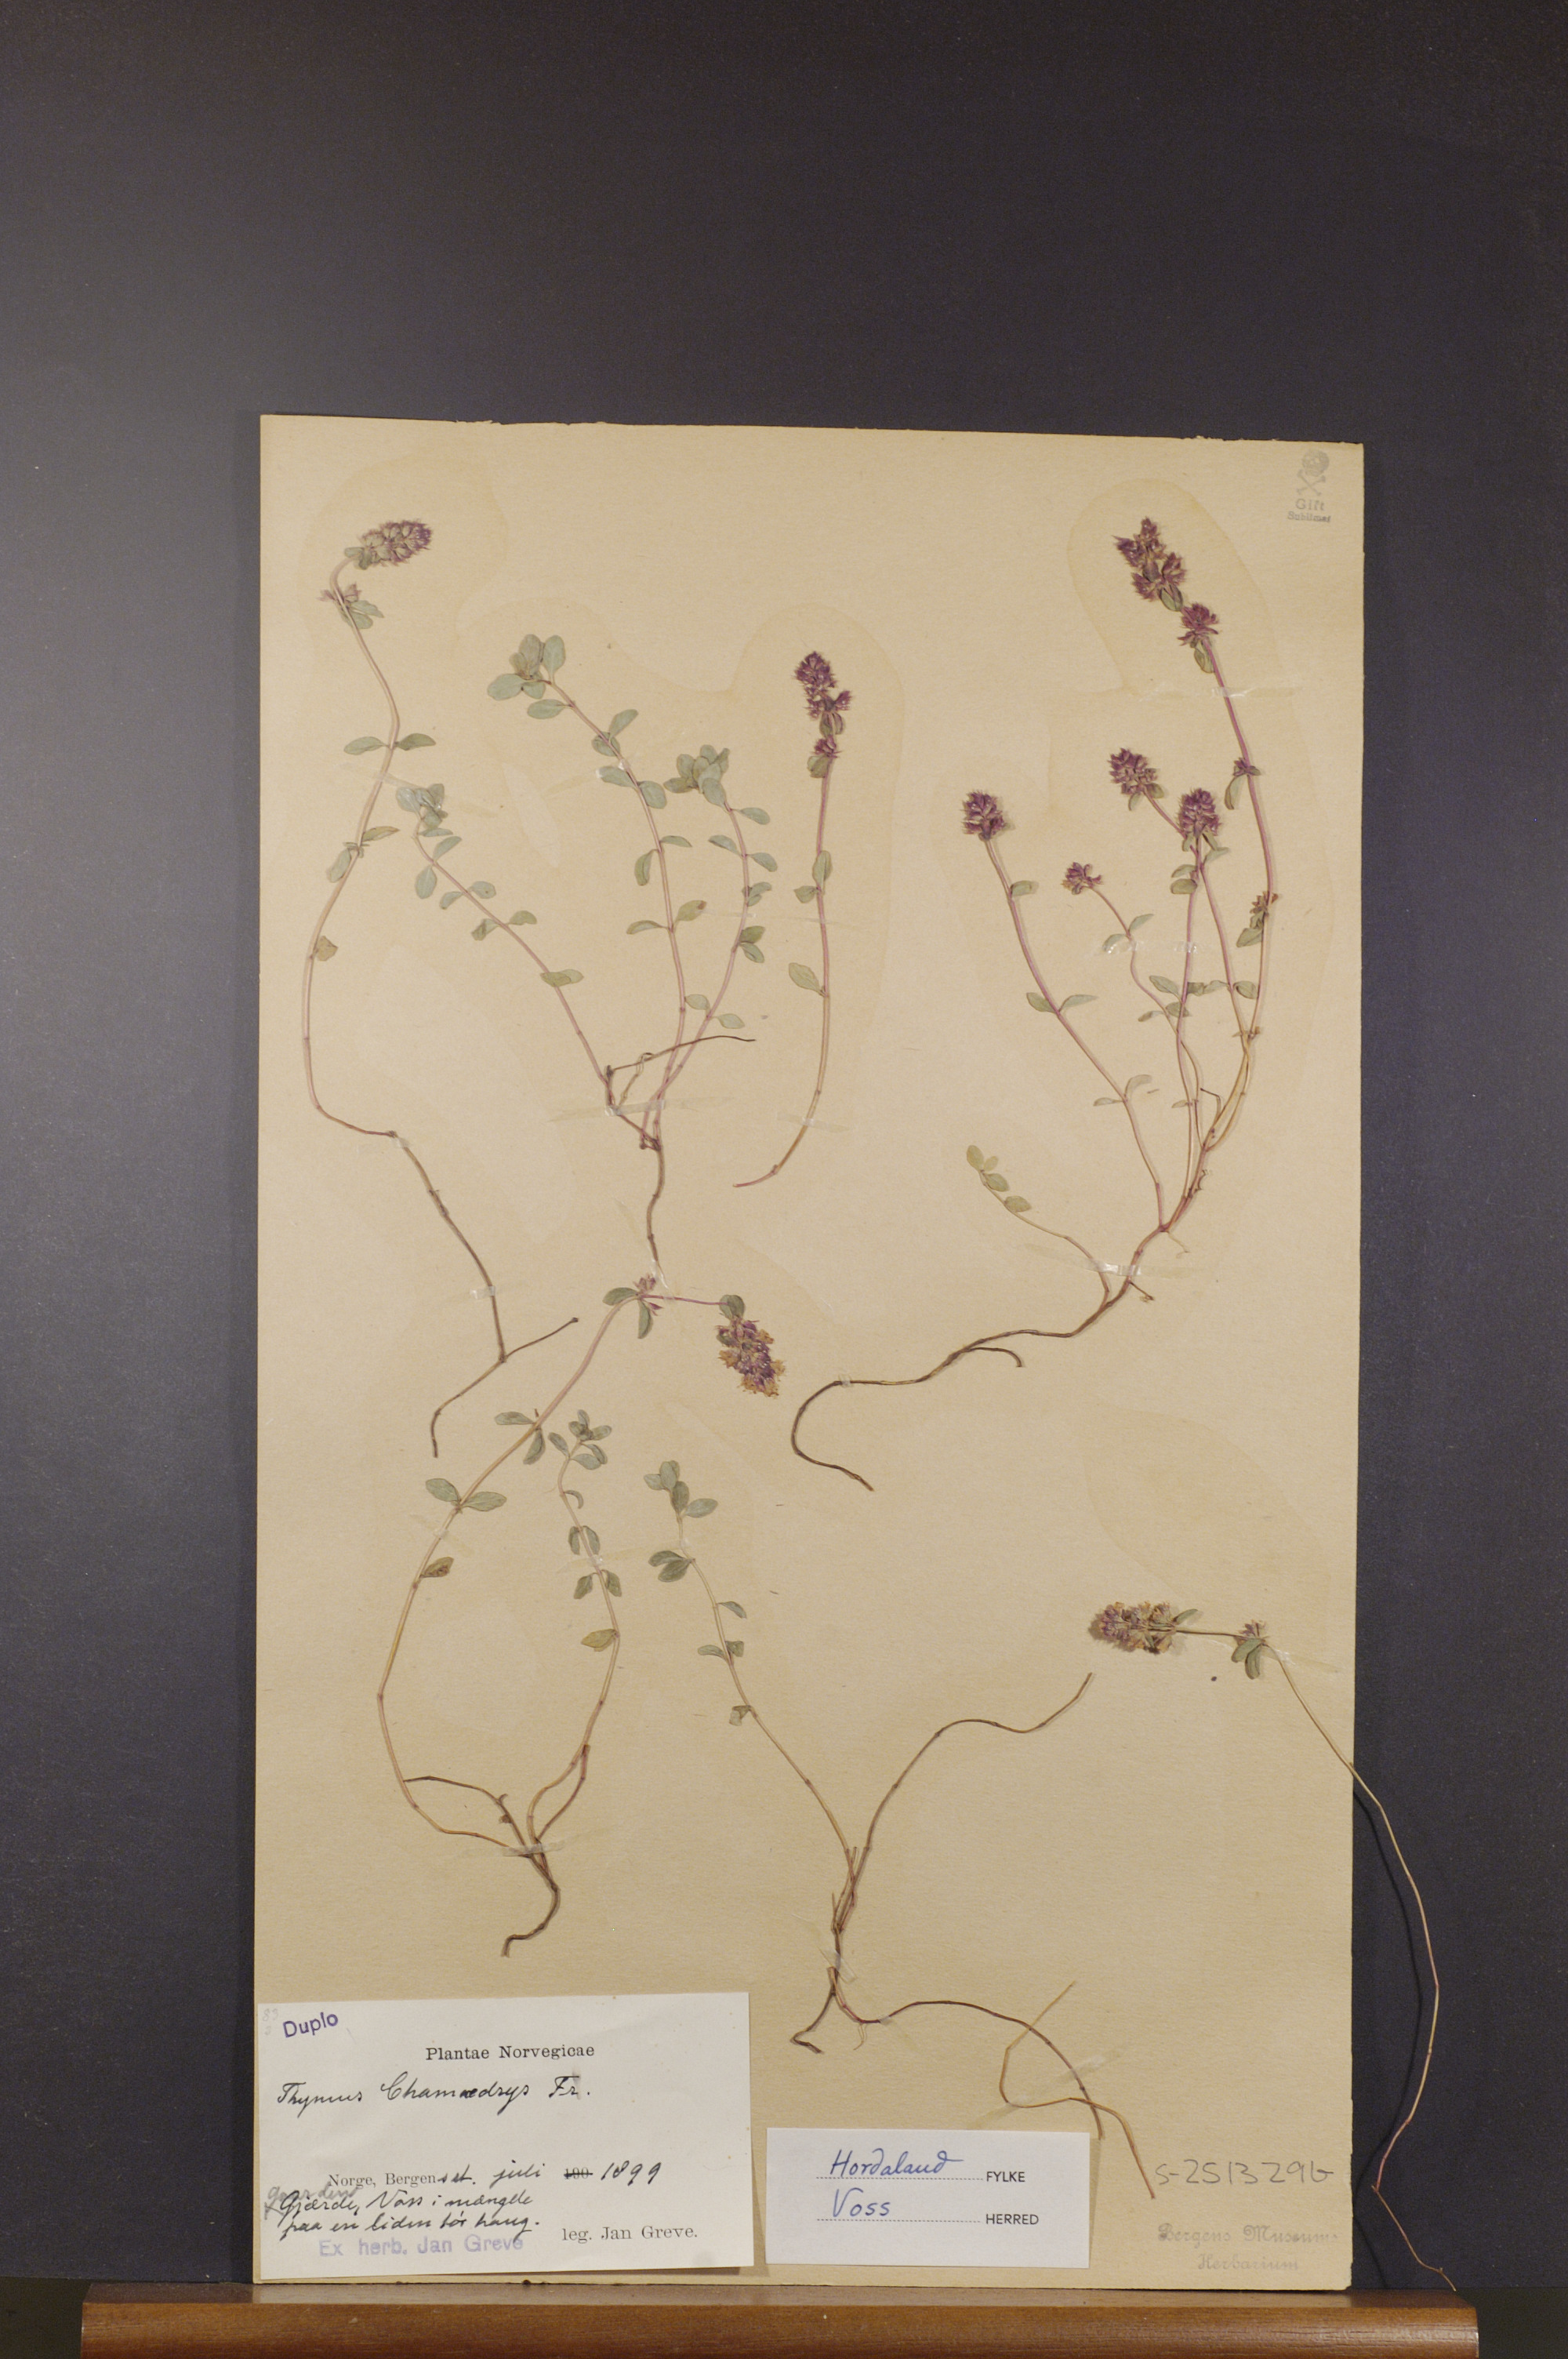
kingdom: Plantae
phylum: Tracheophyta
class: Magnoliopsida
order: Lamiales
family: Lamiaceae
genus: Thymus
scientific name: Thymus pulegioides
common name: Large thyme
